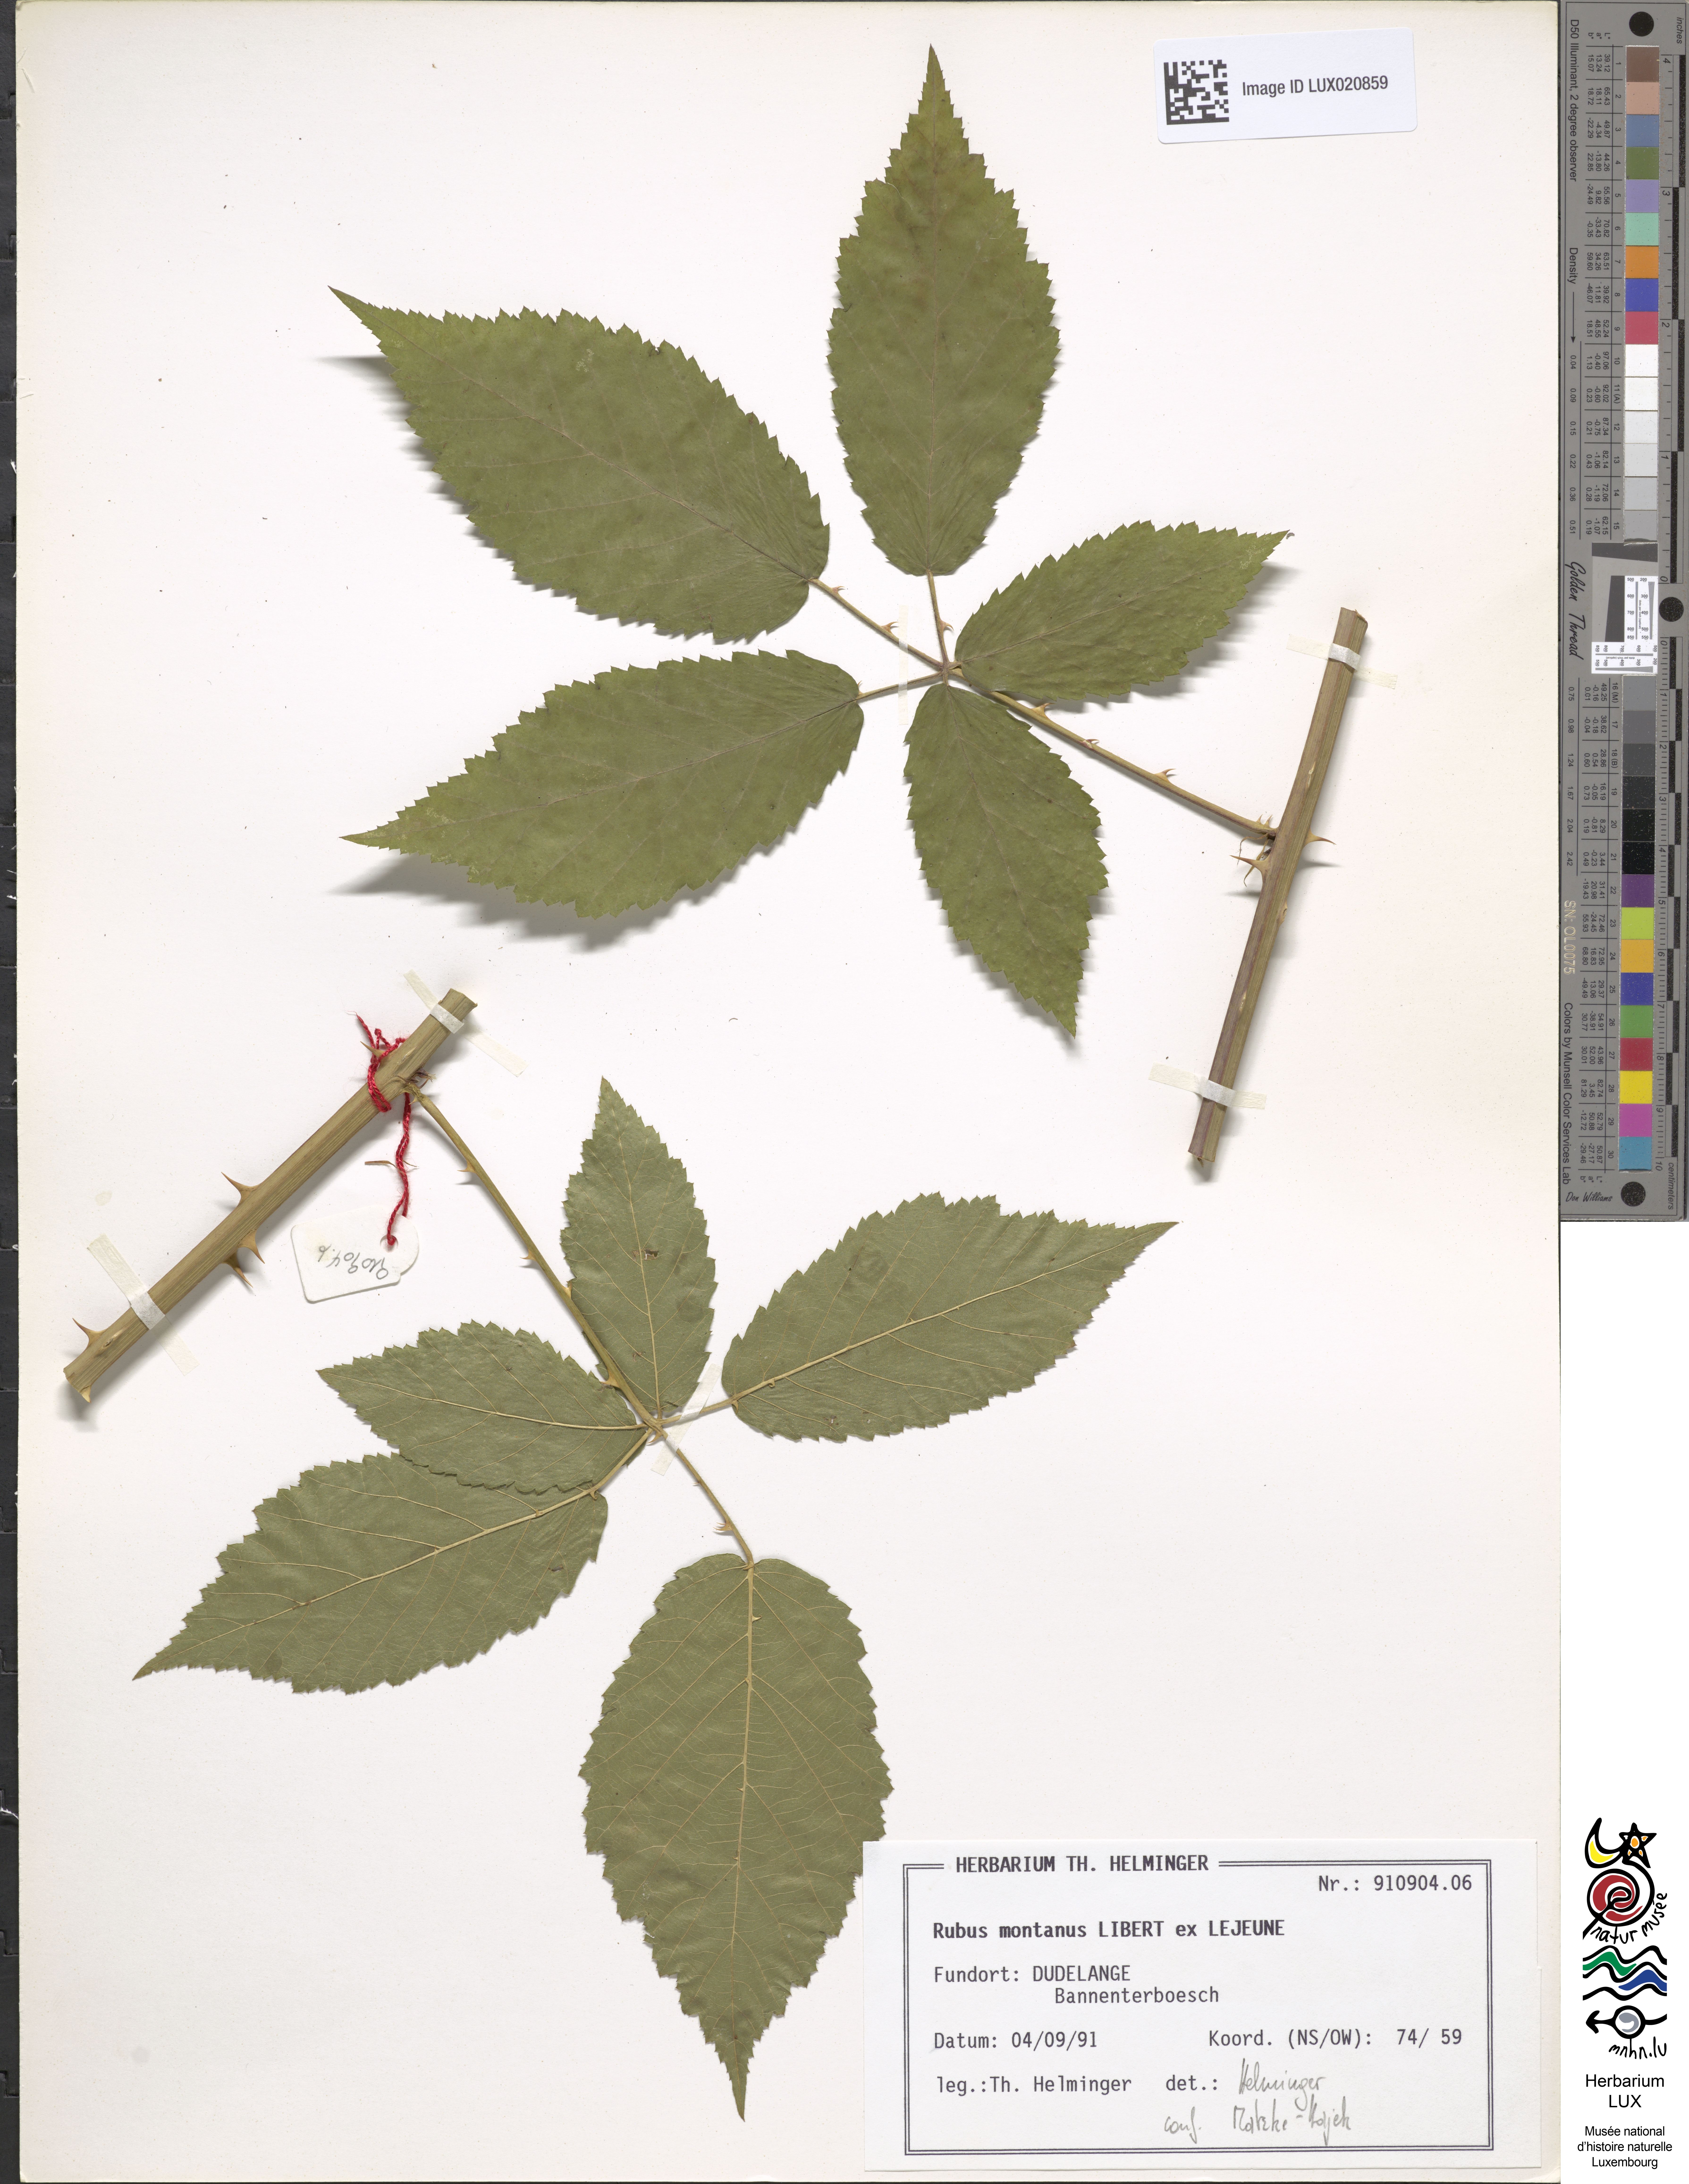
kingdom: Plantae
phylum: Tracheophyta
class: Magnoliopsida
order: Rosales
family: Rosaceae
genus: Rubus
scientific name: Rubus montanus
